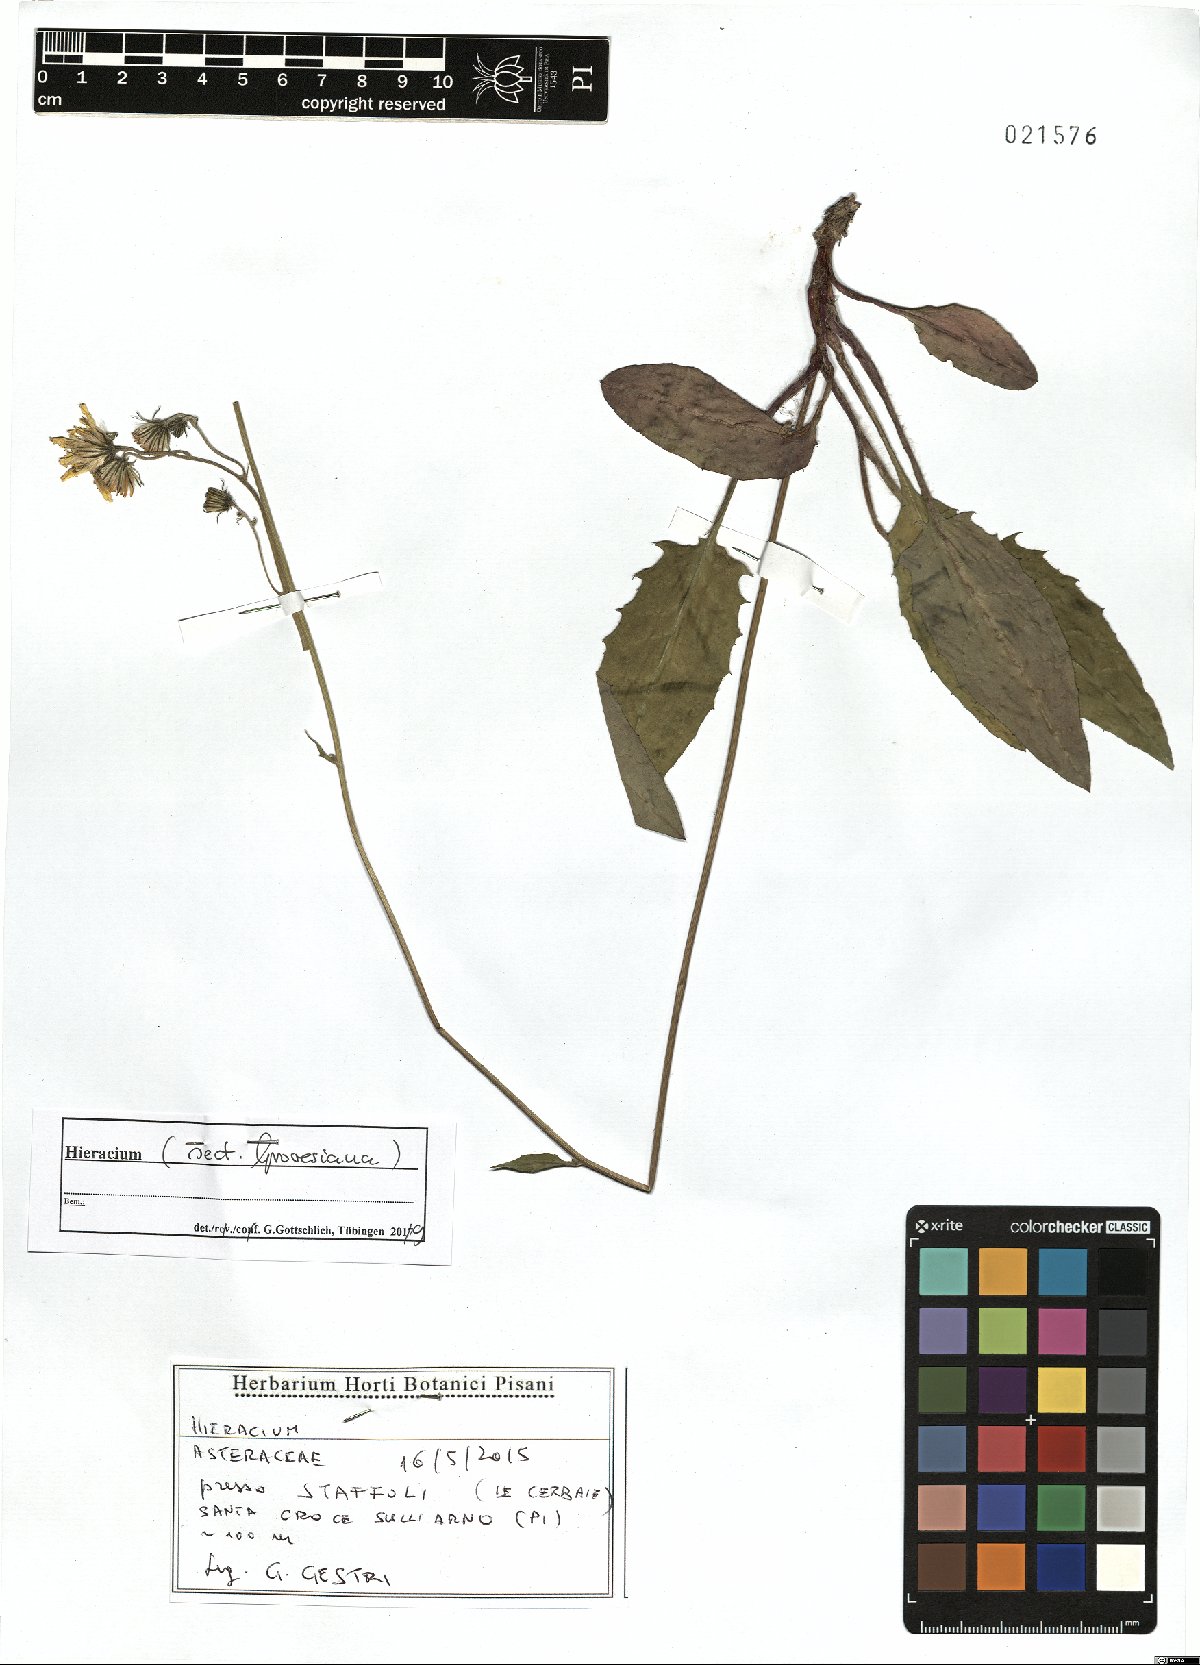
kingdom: Plantae
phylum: Tracheophyta
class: Magnoliopsida
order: Asterales
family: Asteraceae
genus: Hieracium
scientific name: Hieracium grovesianum
